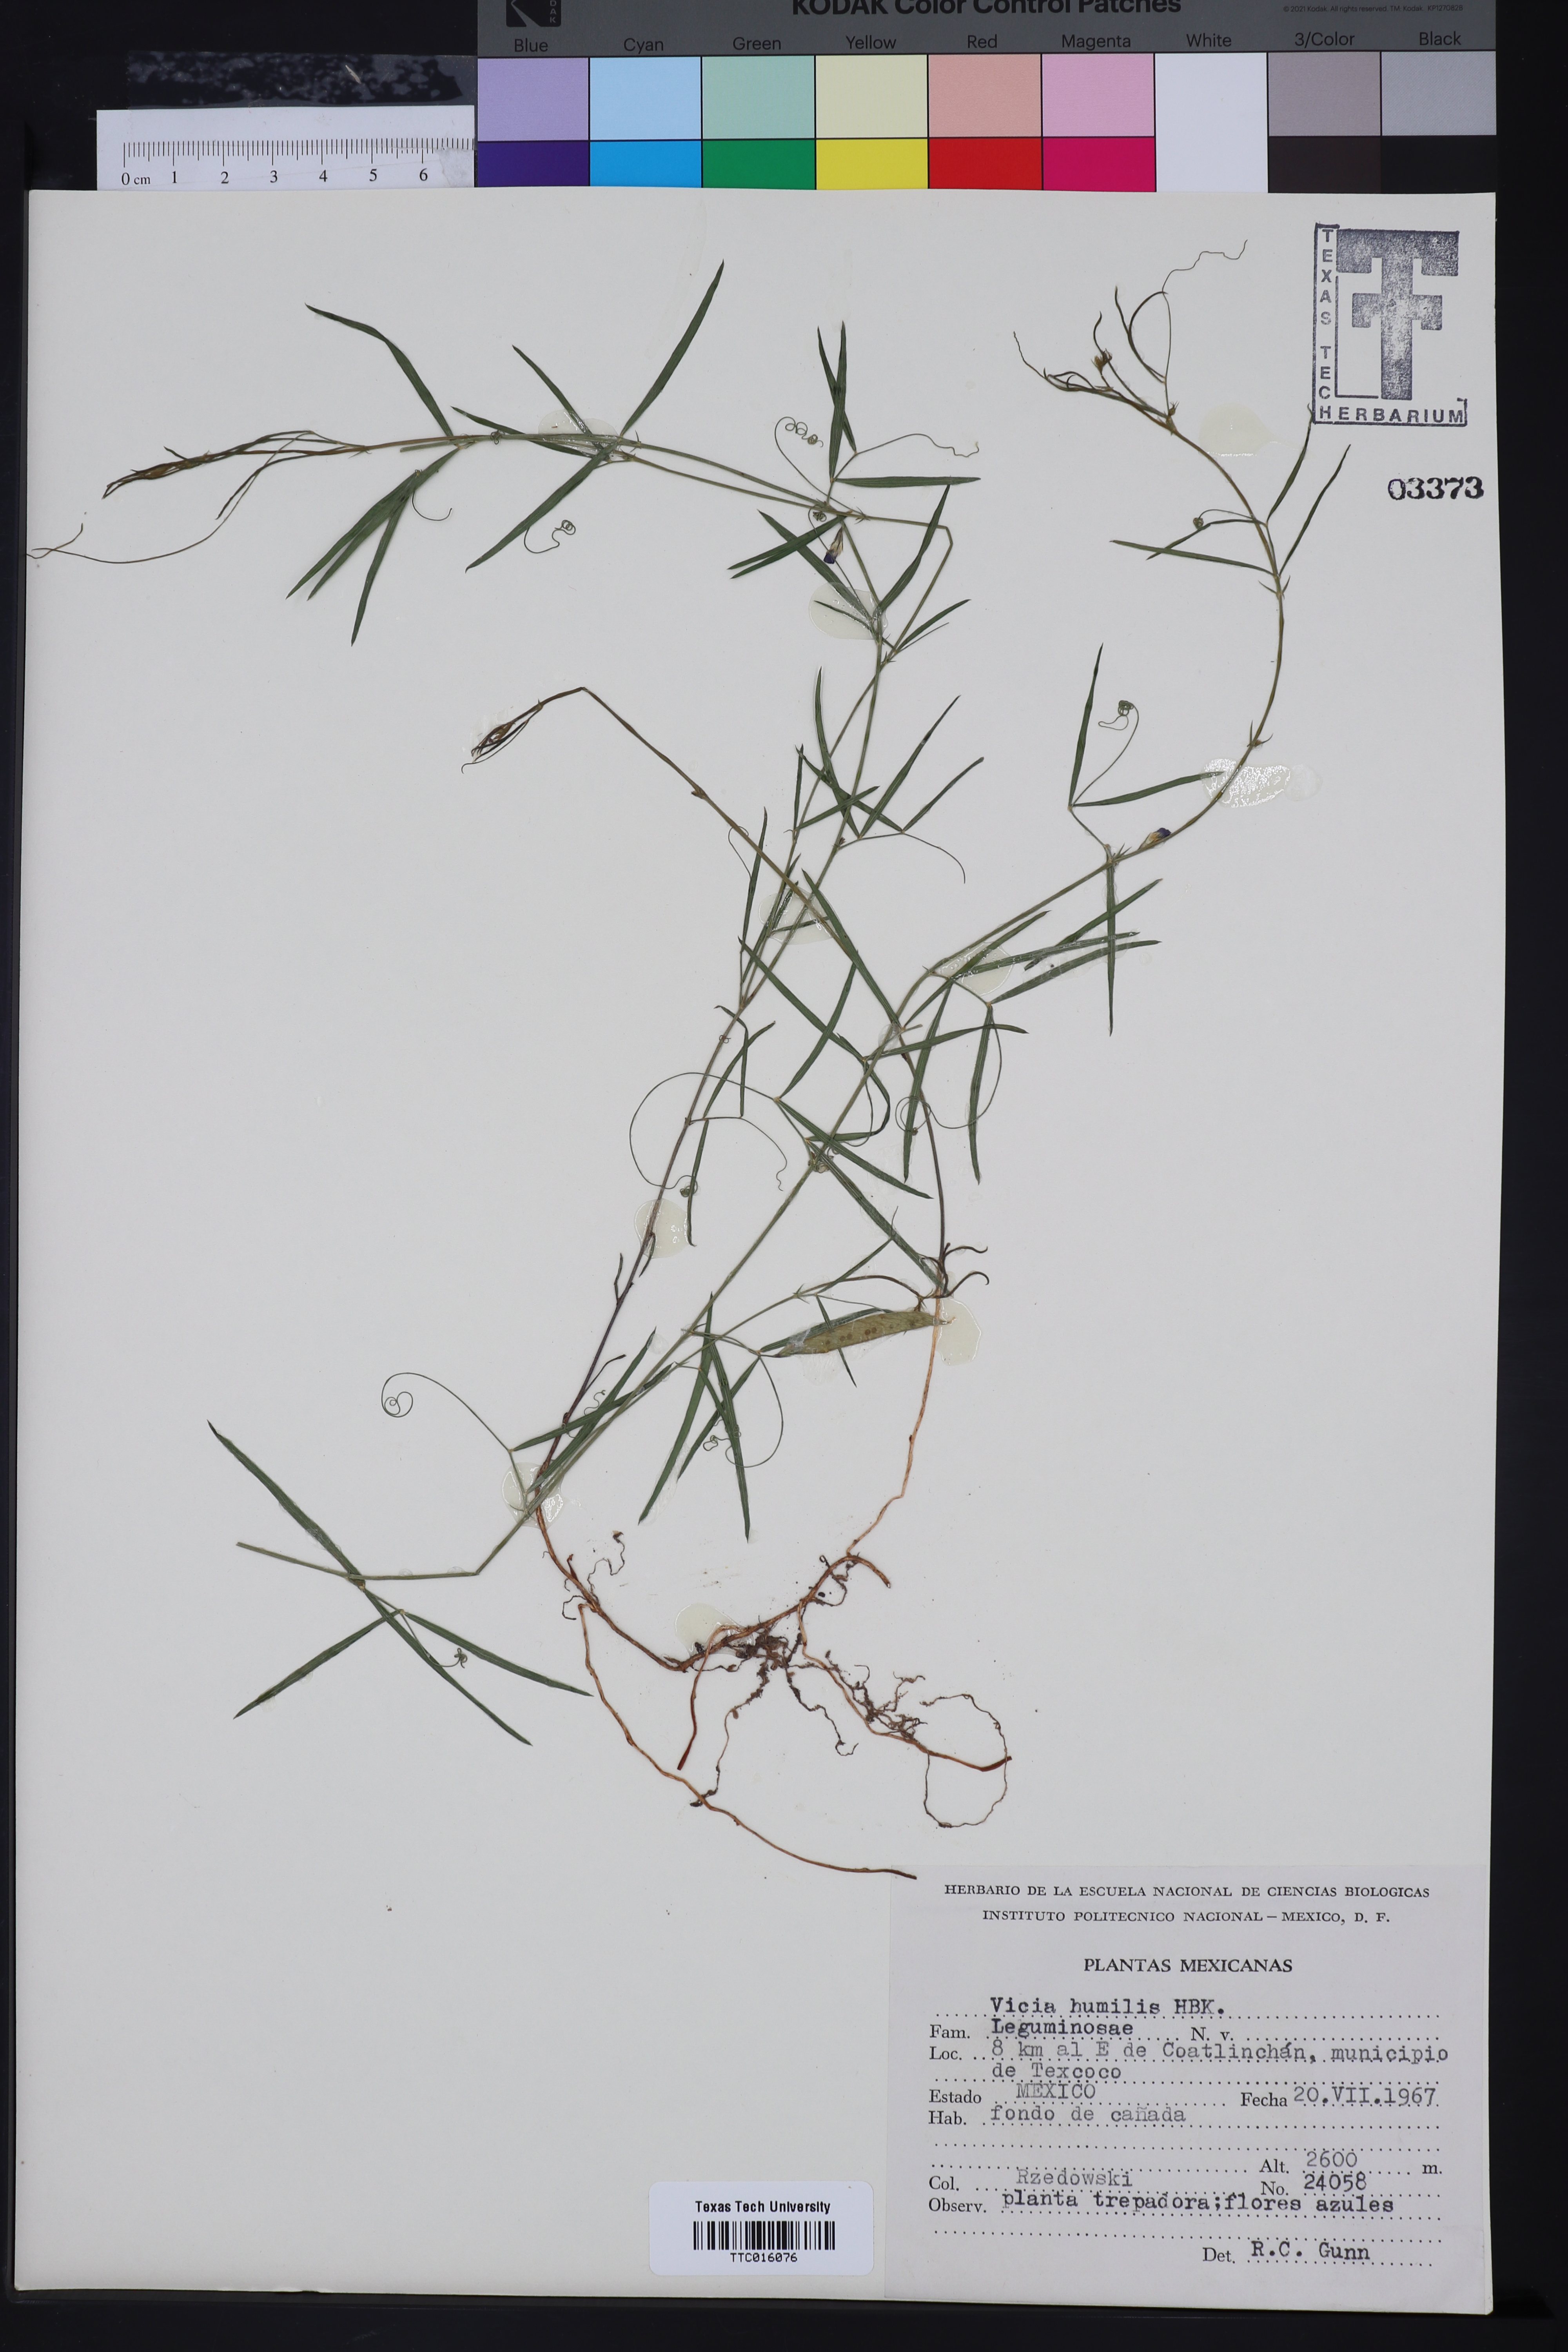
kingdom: Plantae
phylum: Tracheophyta
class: Magnoliopsida
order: Fabales
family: Fabaceae
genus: Vicia
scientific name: Vicia humilis
